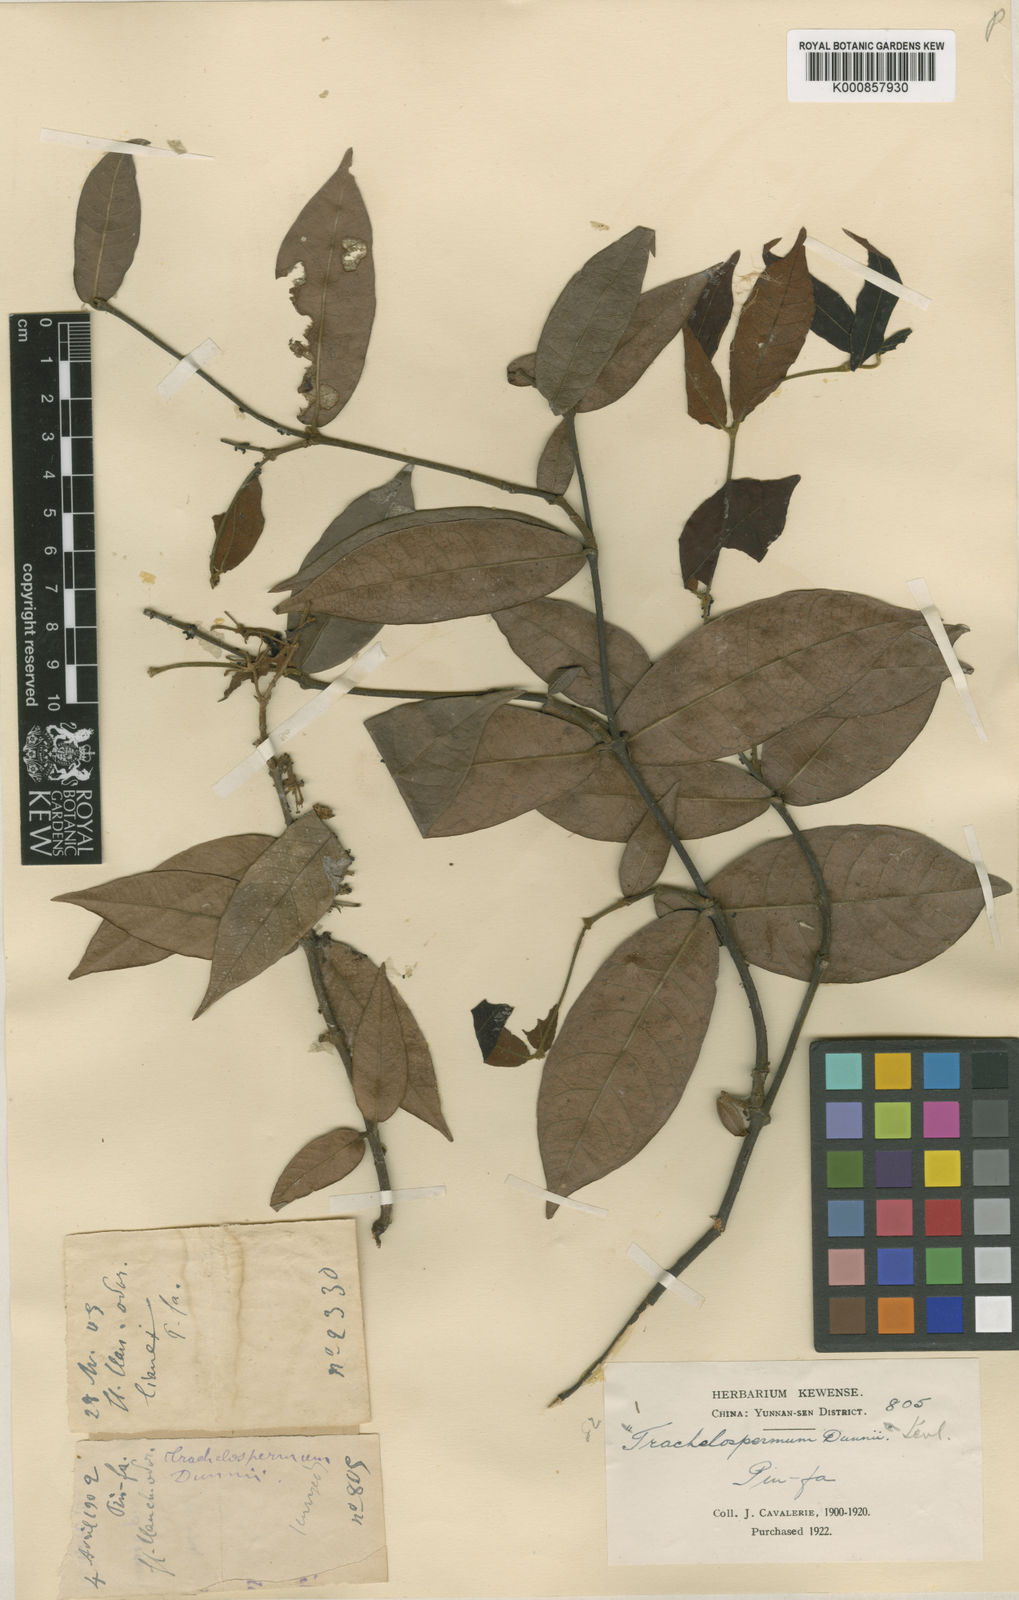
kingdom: Plantae
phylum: Tracheophyta
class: Magnoliopsida
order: Gentianales
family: Apocynaceae
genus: Trachelospermum
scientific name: Trachelospermum
